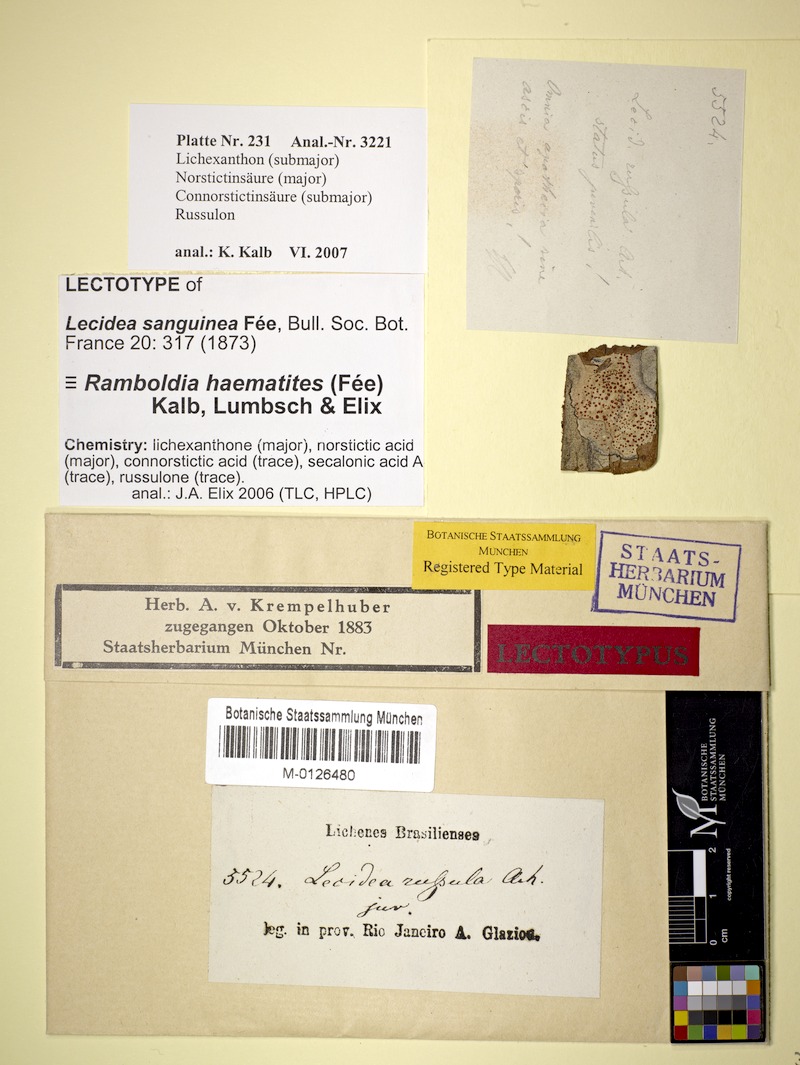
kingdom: Fungi
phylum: Ascomycota
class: Lecanoromycetes
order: Lecanorales
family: Ramboldiaceae
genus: Ramboldia
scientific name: Ramboldia haematites
